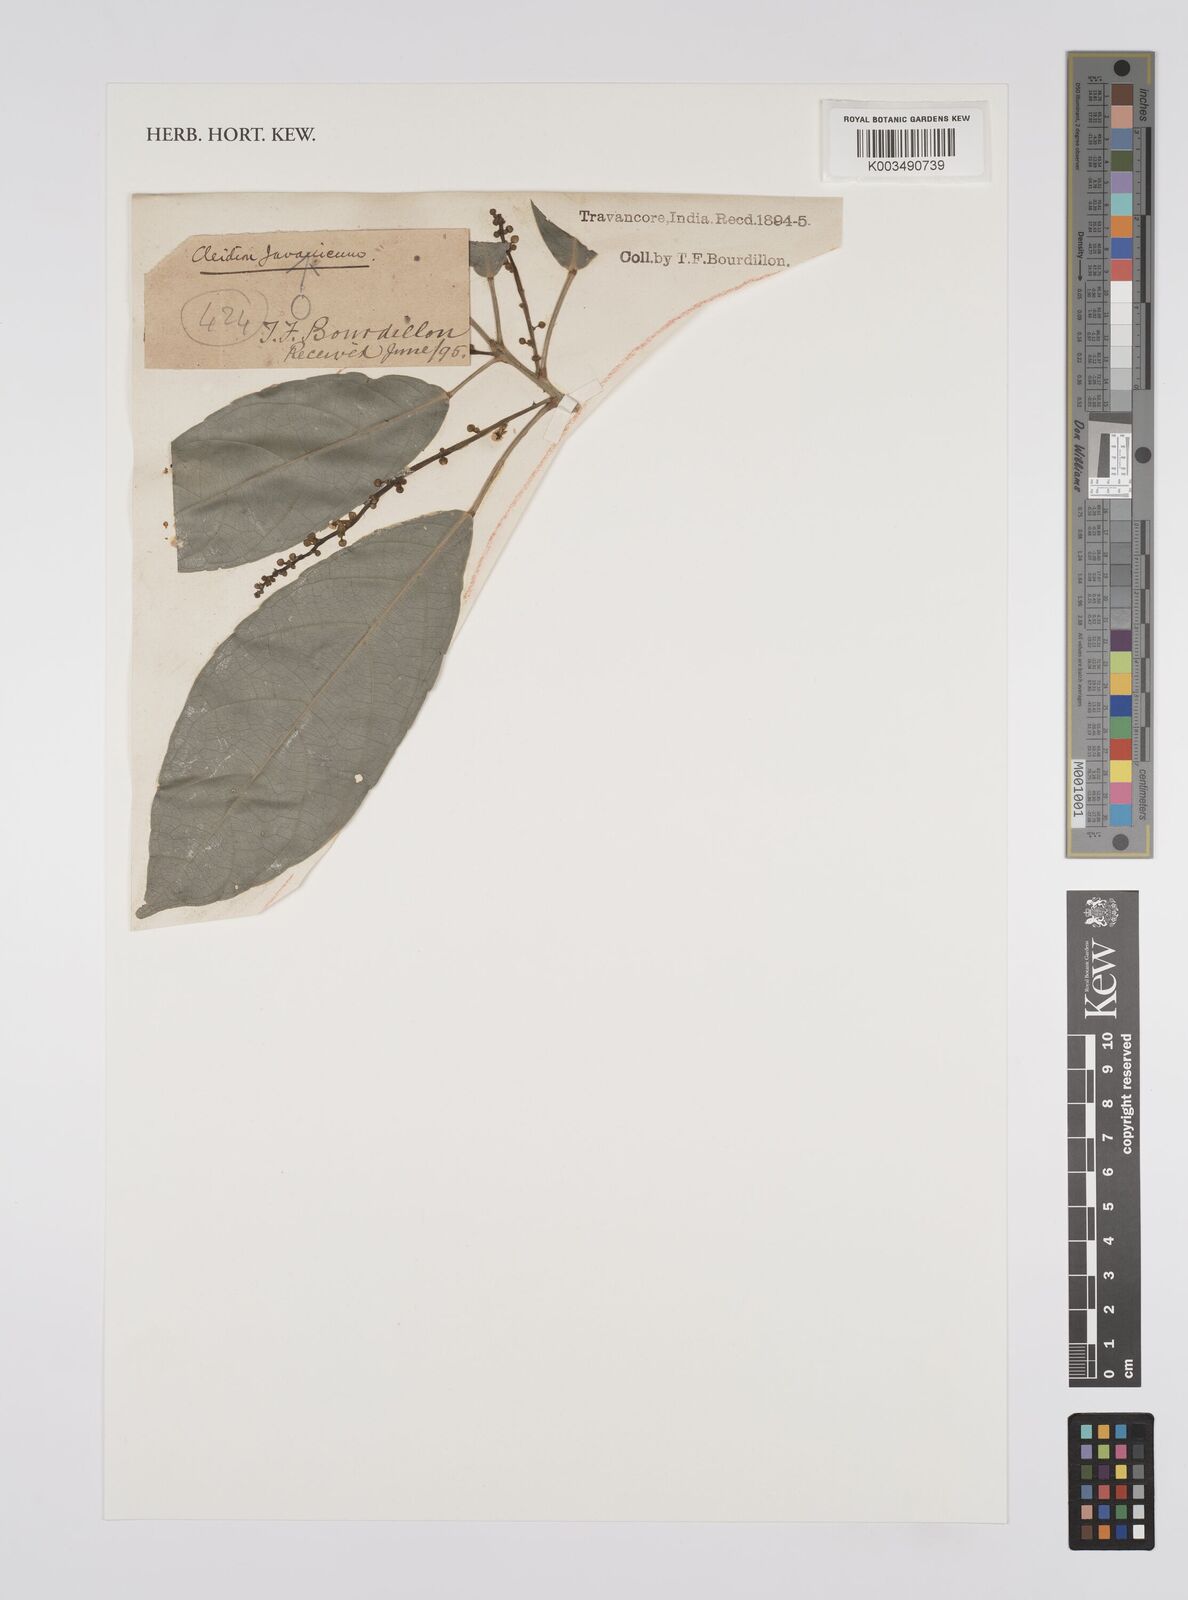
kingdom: Plantae
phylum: Tracheophyta
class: Magnoliopsida
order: Malpighiales
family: Euphorbiaceae
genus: Cleidion
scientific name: Cleidion javanicum
